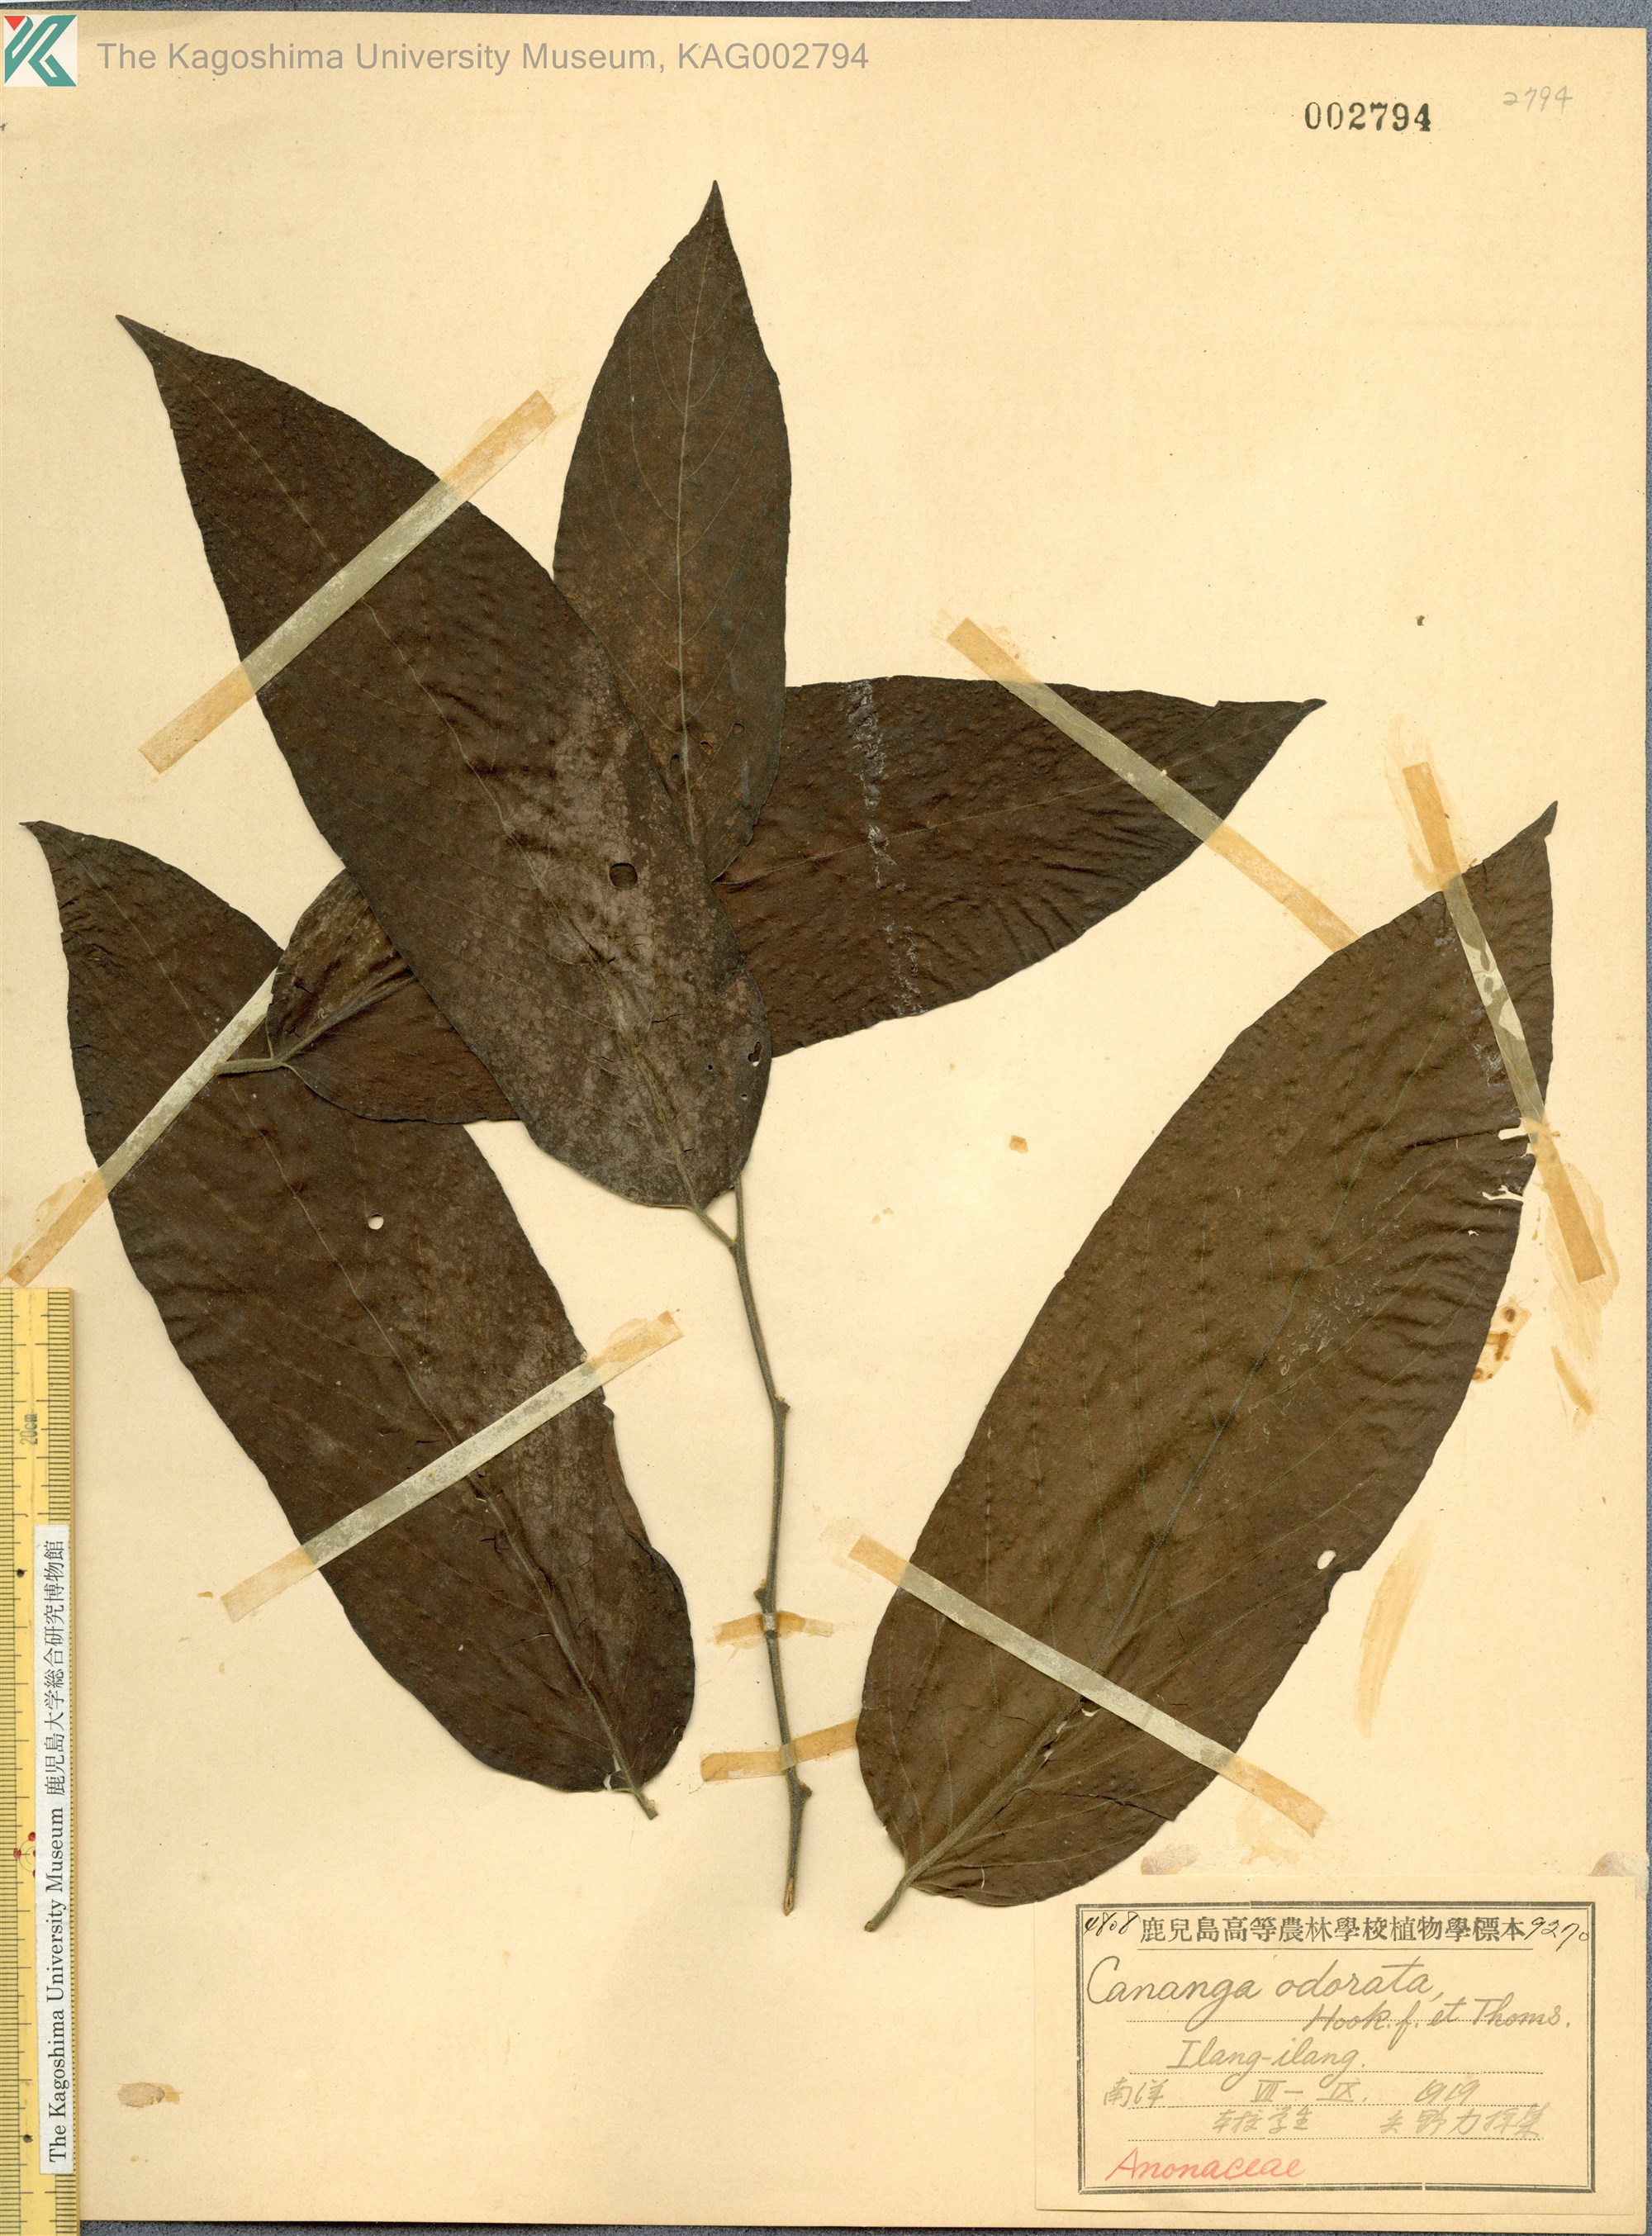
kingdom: Plantae
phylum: Tracheophyta
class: Magnoliopsida
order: Magnoliales
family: Annonaceae
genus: Cananga
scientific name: Cananga odorata
